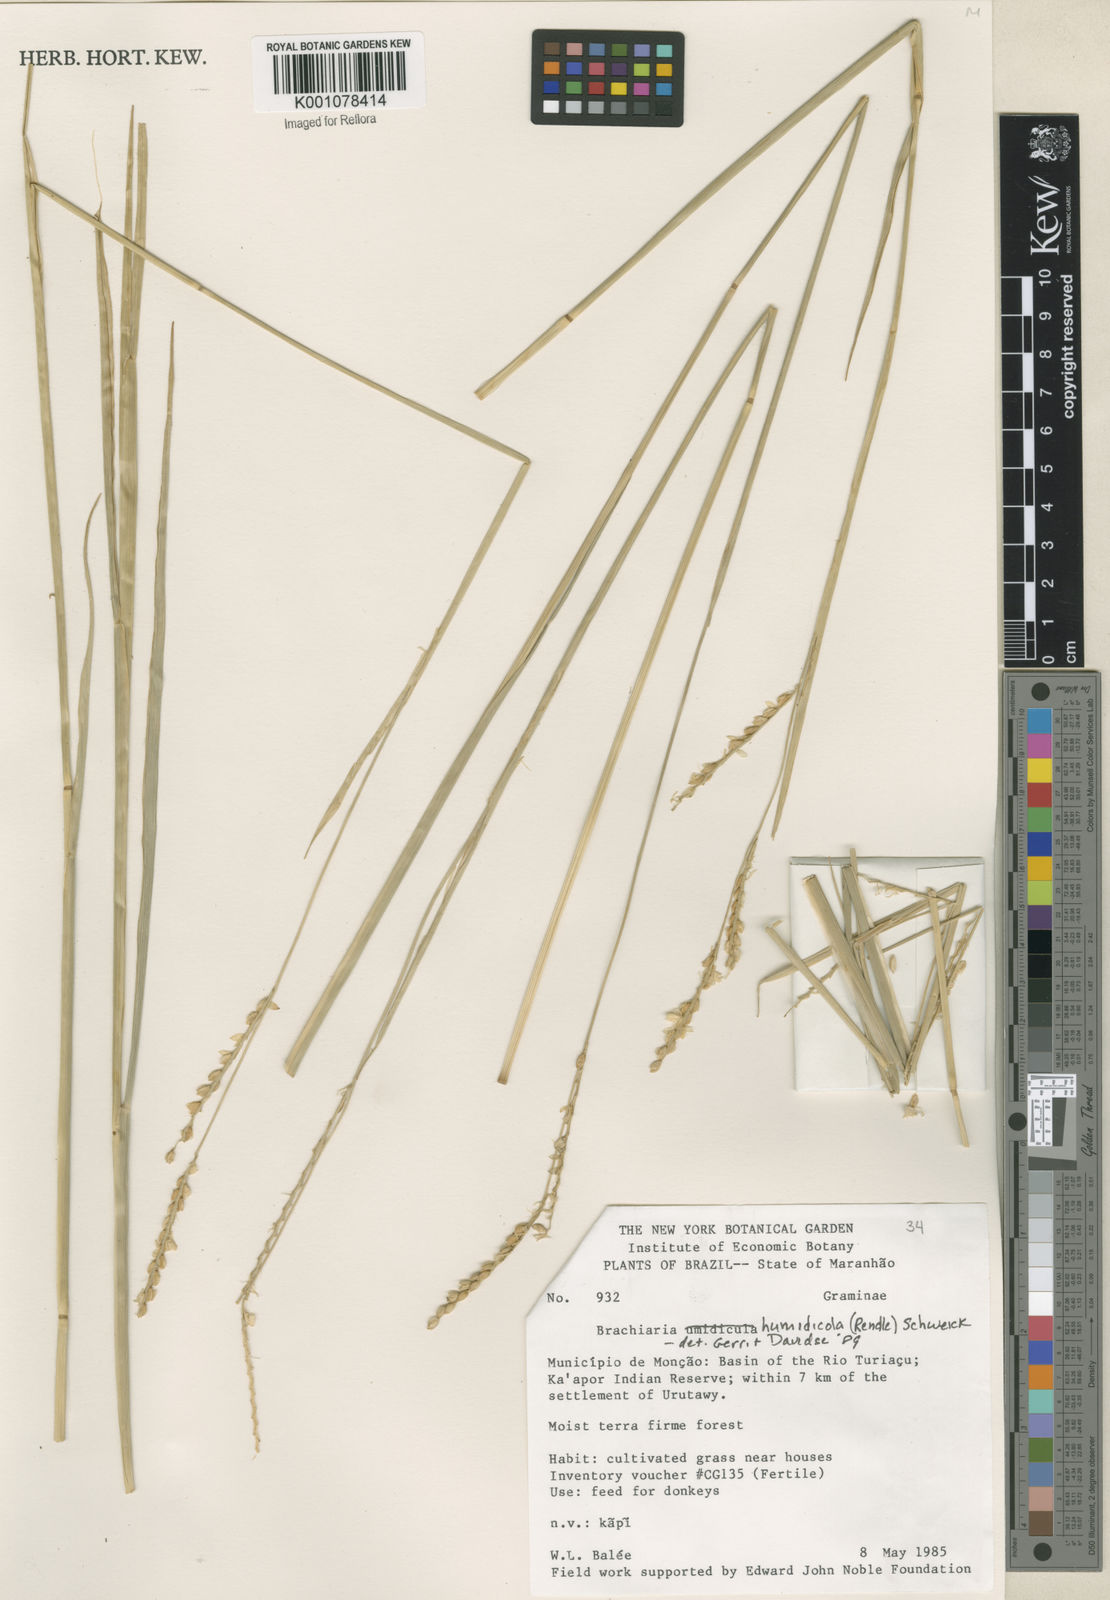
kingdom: Plantae
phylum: Tracheophyta
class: Liliopsida
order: Poales
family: Poaceae
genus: Urochloa
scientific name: Urochloa dictyoneura
